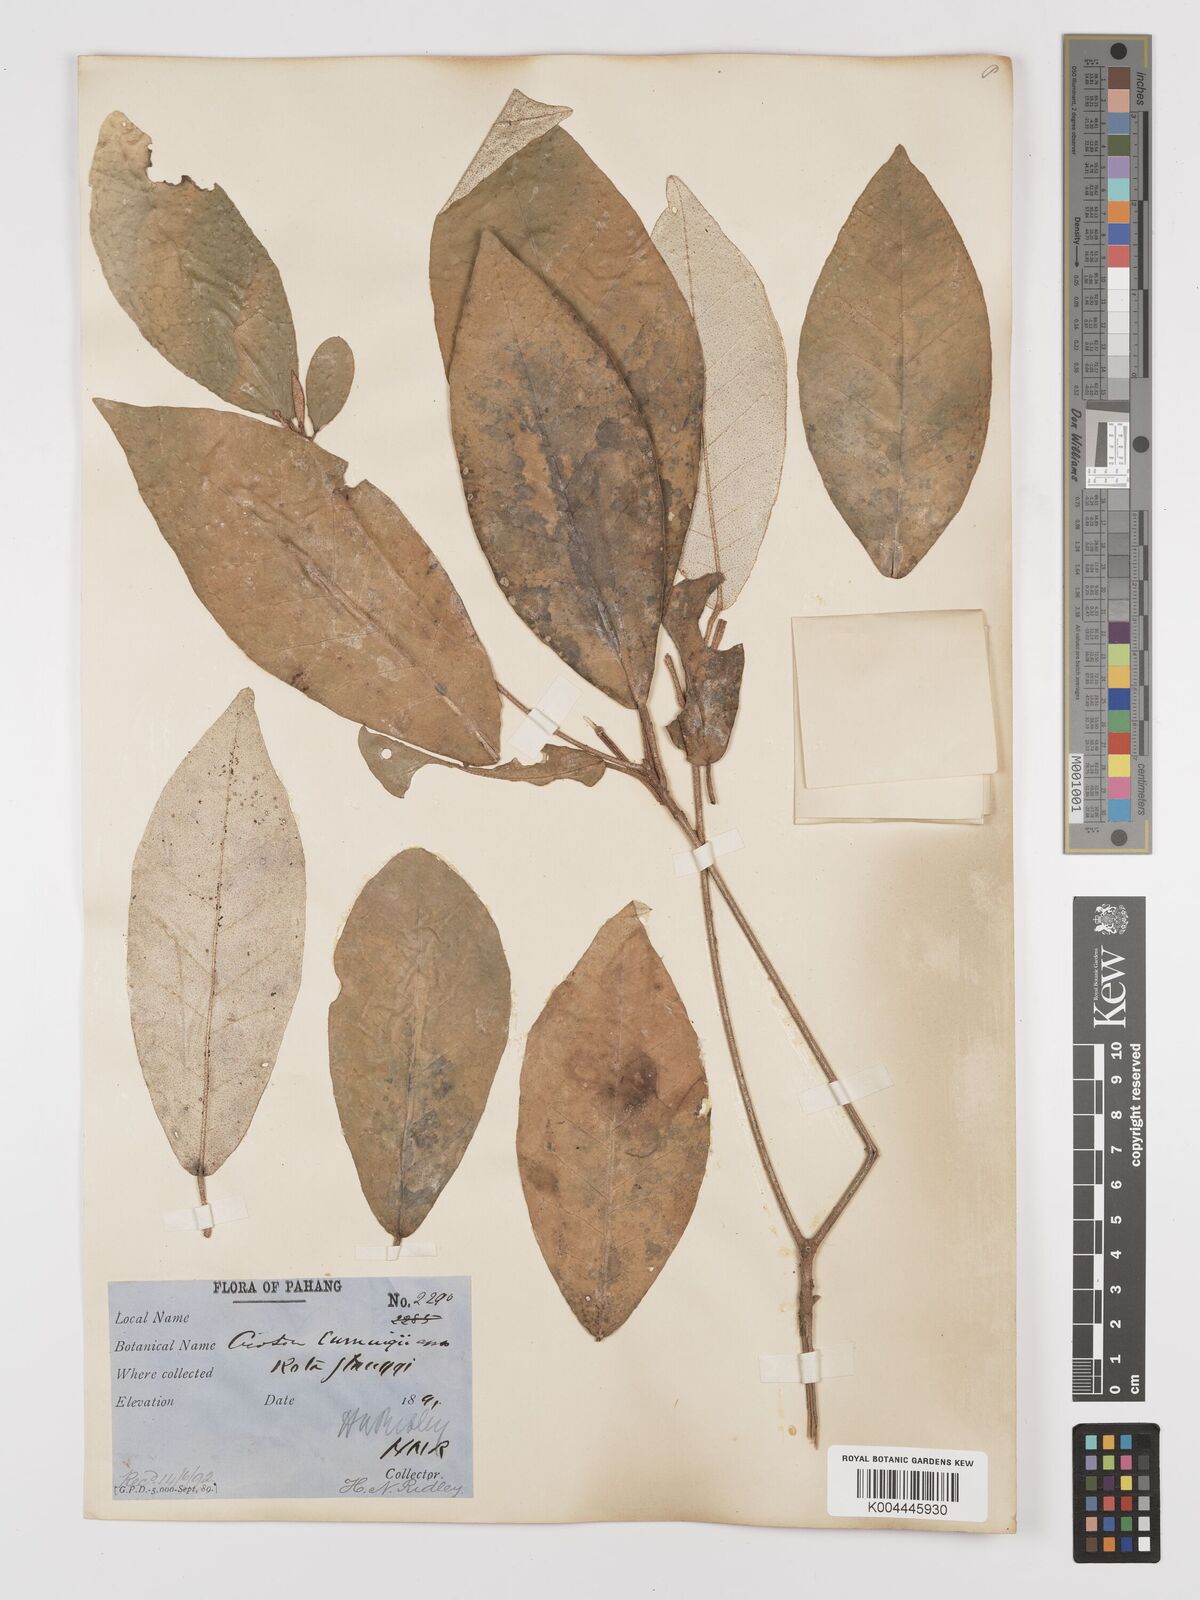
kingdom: Plantae
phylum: Tracheophyta
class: Magnoliopsida
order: Malpighiales
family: Euphorbiaceae
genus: Croton
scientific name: Croton cascarilloides
